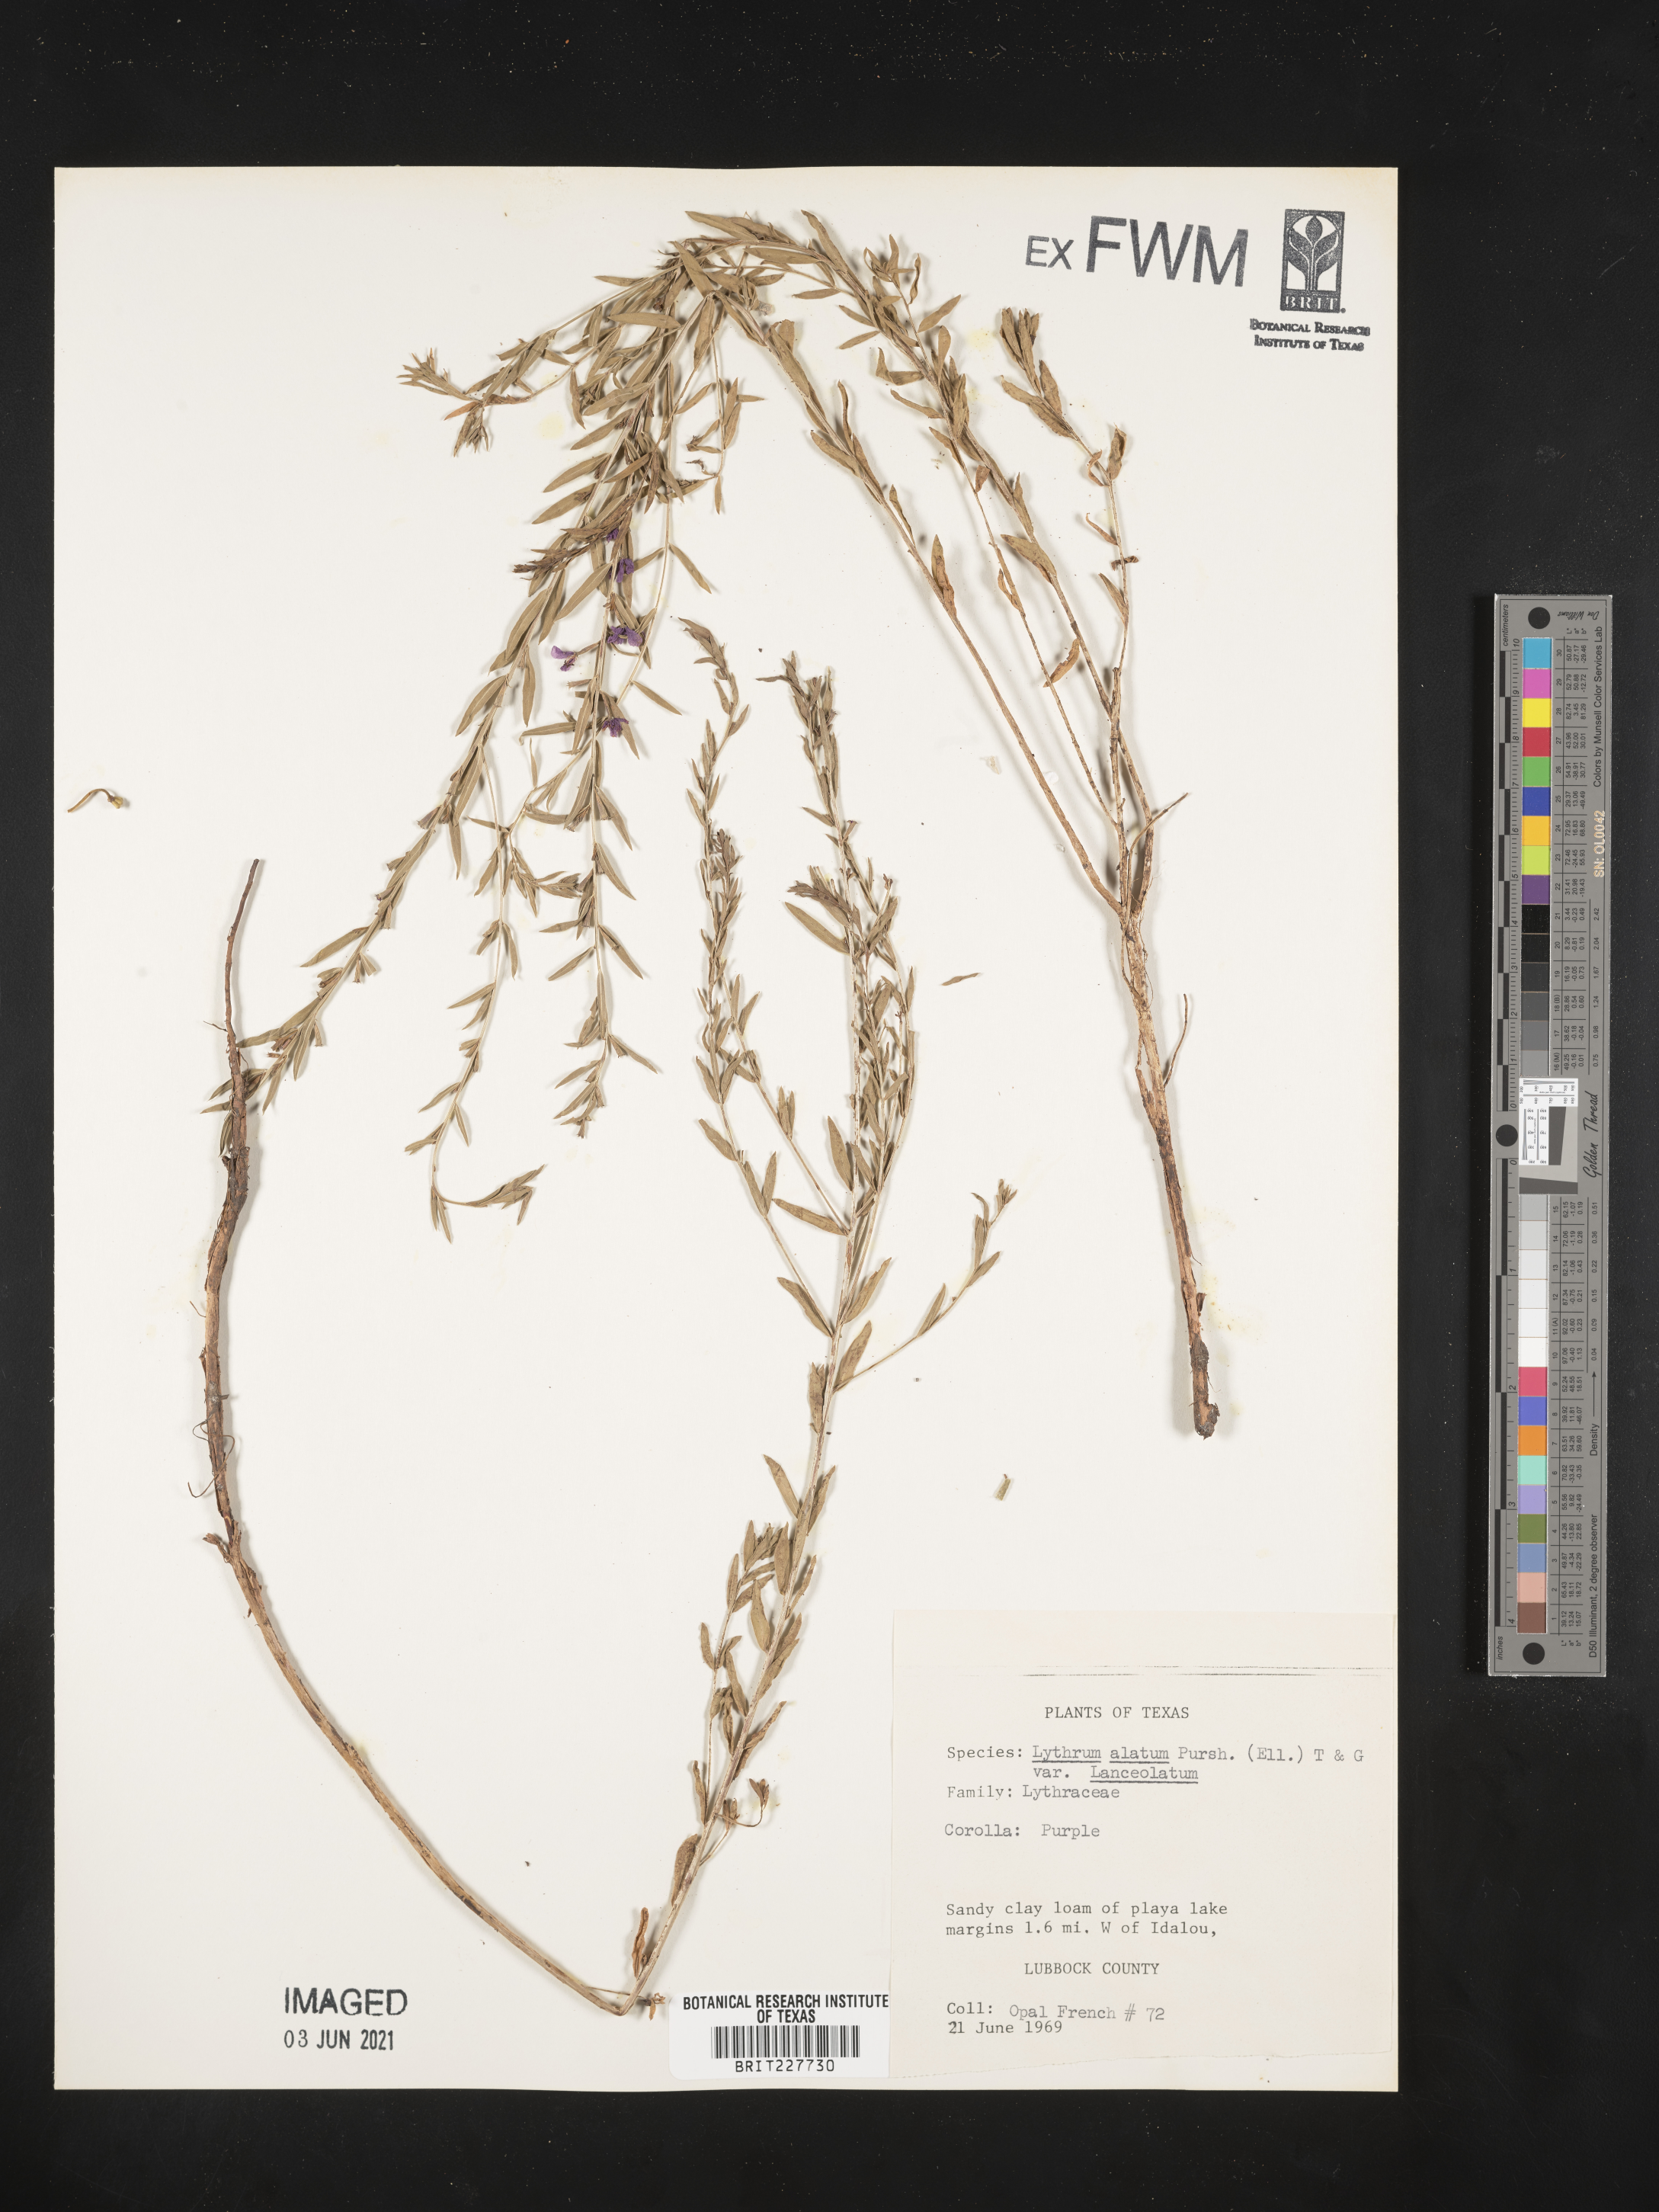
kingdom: Plantae
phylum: Tracheophyta
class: Magnoliopsida
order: Myrtales
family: Lythraceae
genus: Lythrum
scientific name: Lythrum alatum
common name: Winged loosestrife
